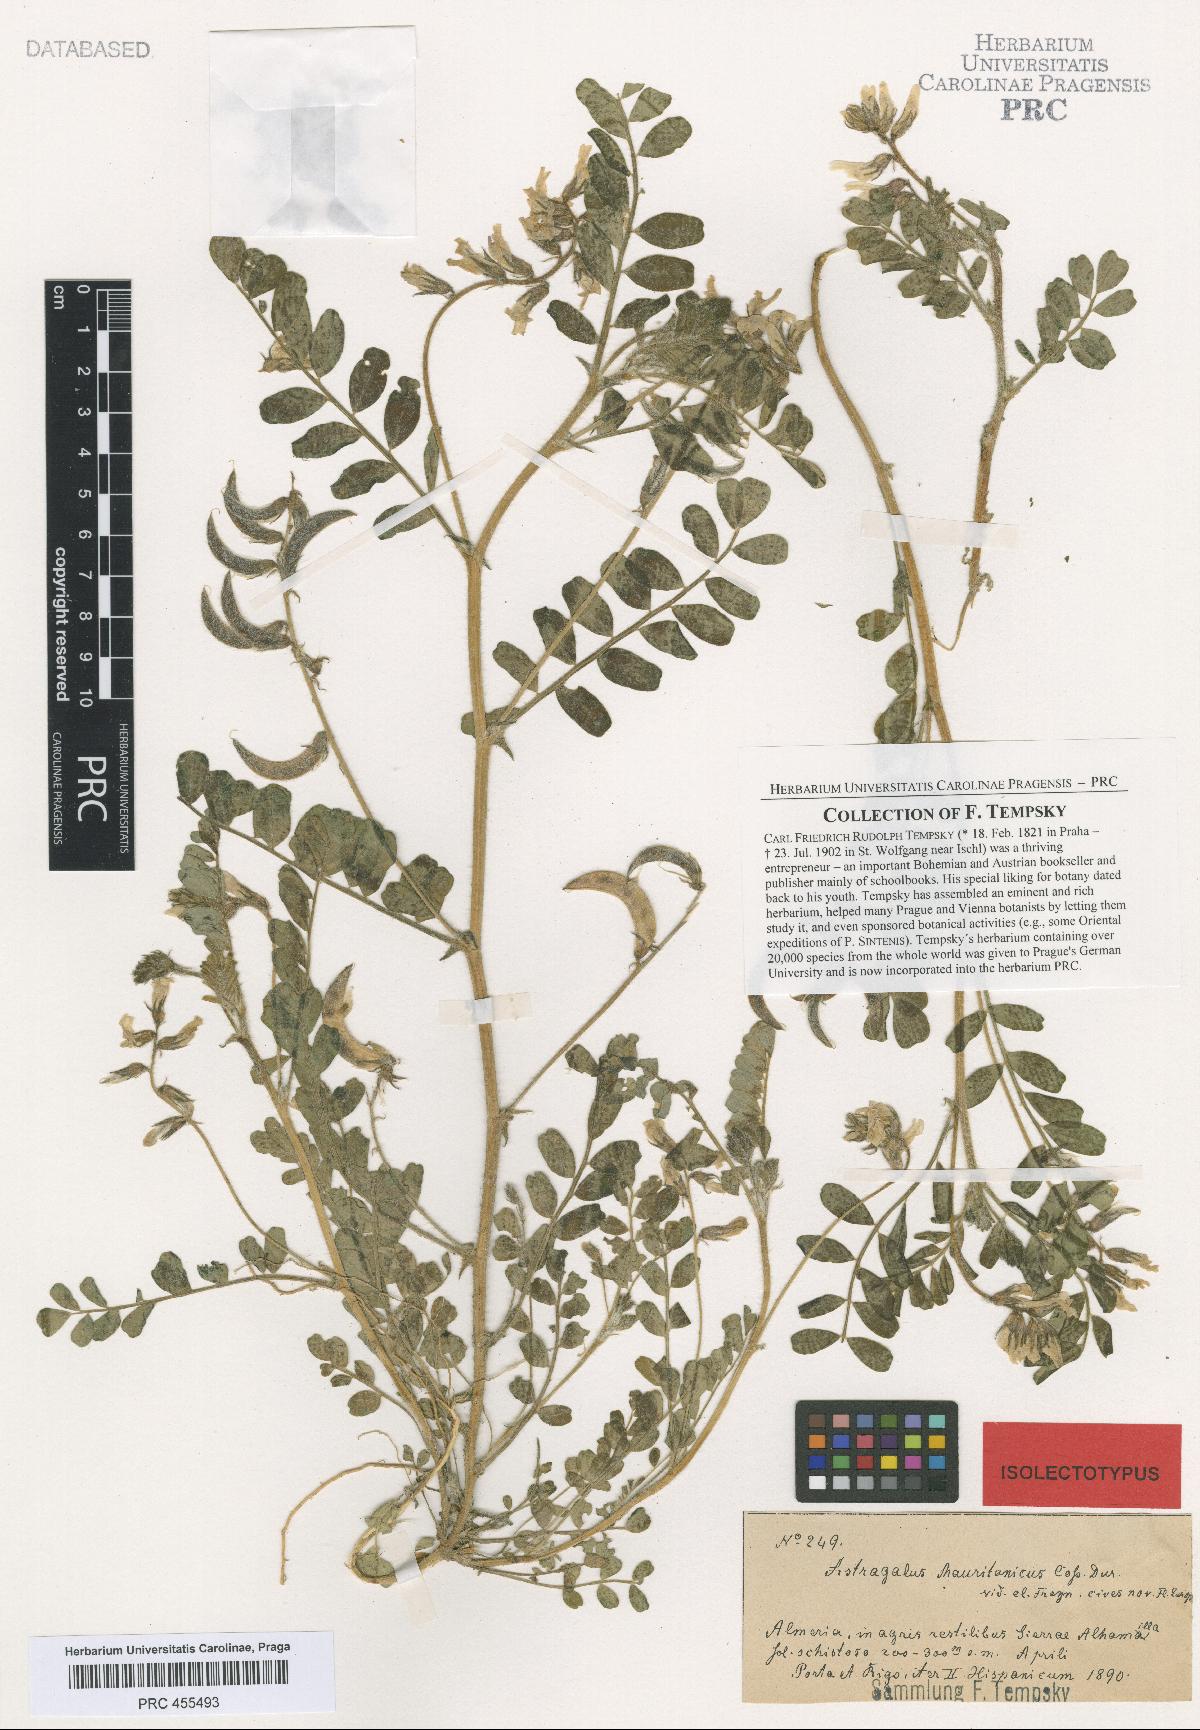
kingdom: Plantae
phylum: Tracheophyta
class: Magnoliopsida
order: Fabales
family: Fabaceae
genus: Astragalus
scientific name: Astragalus longidentatus
